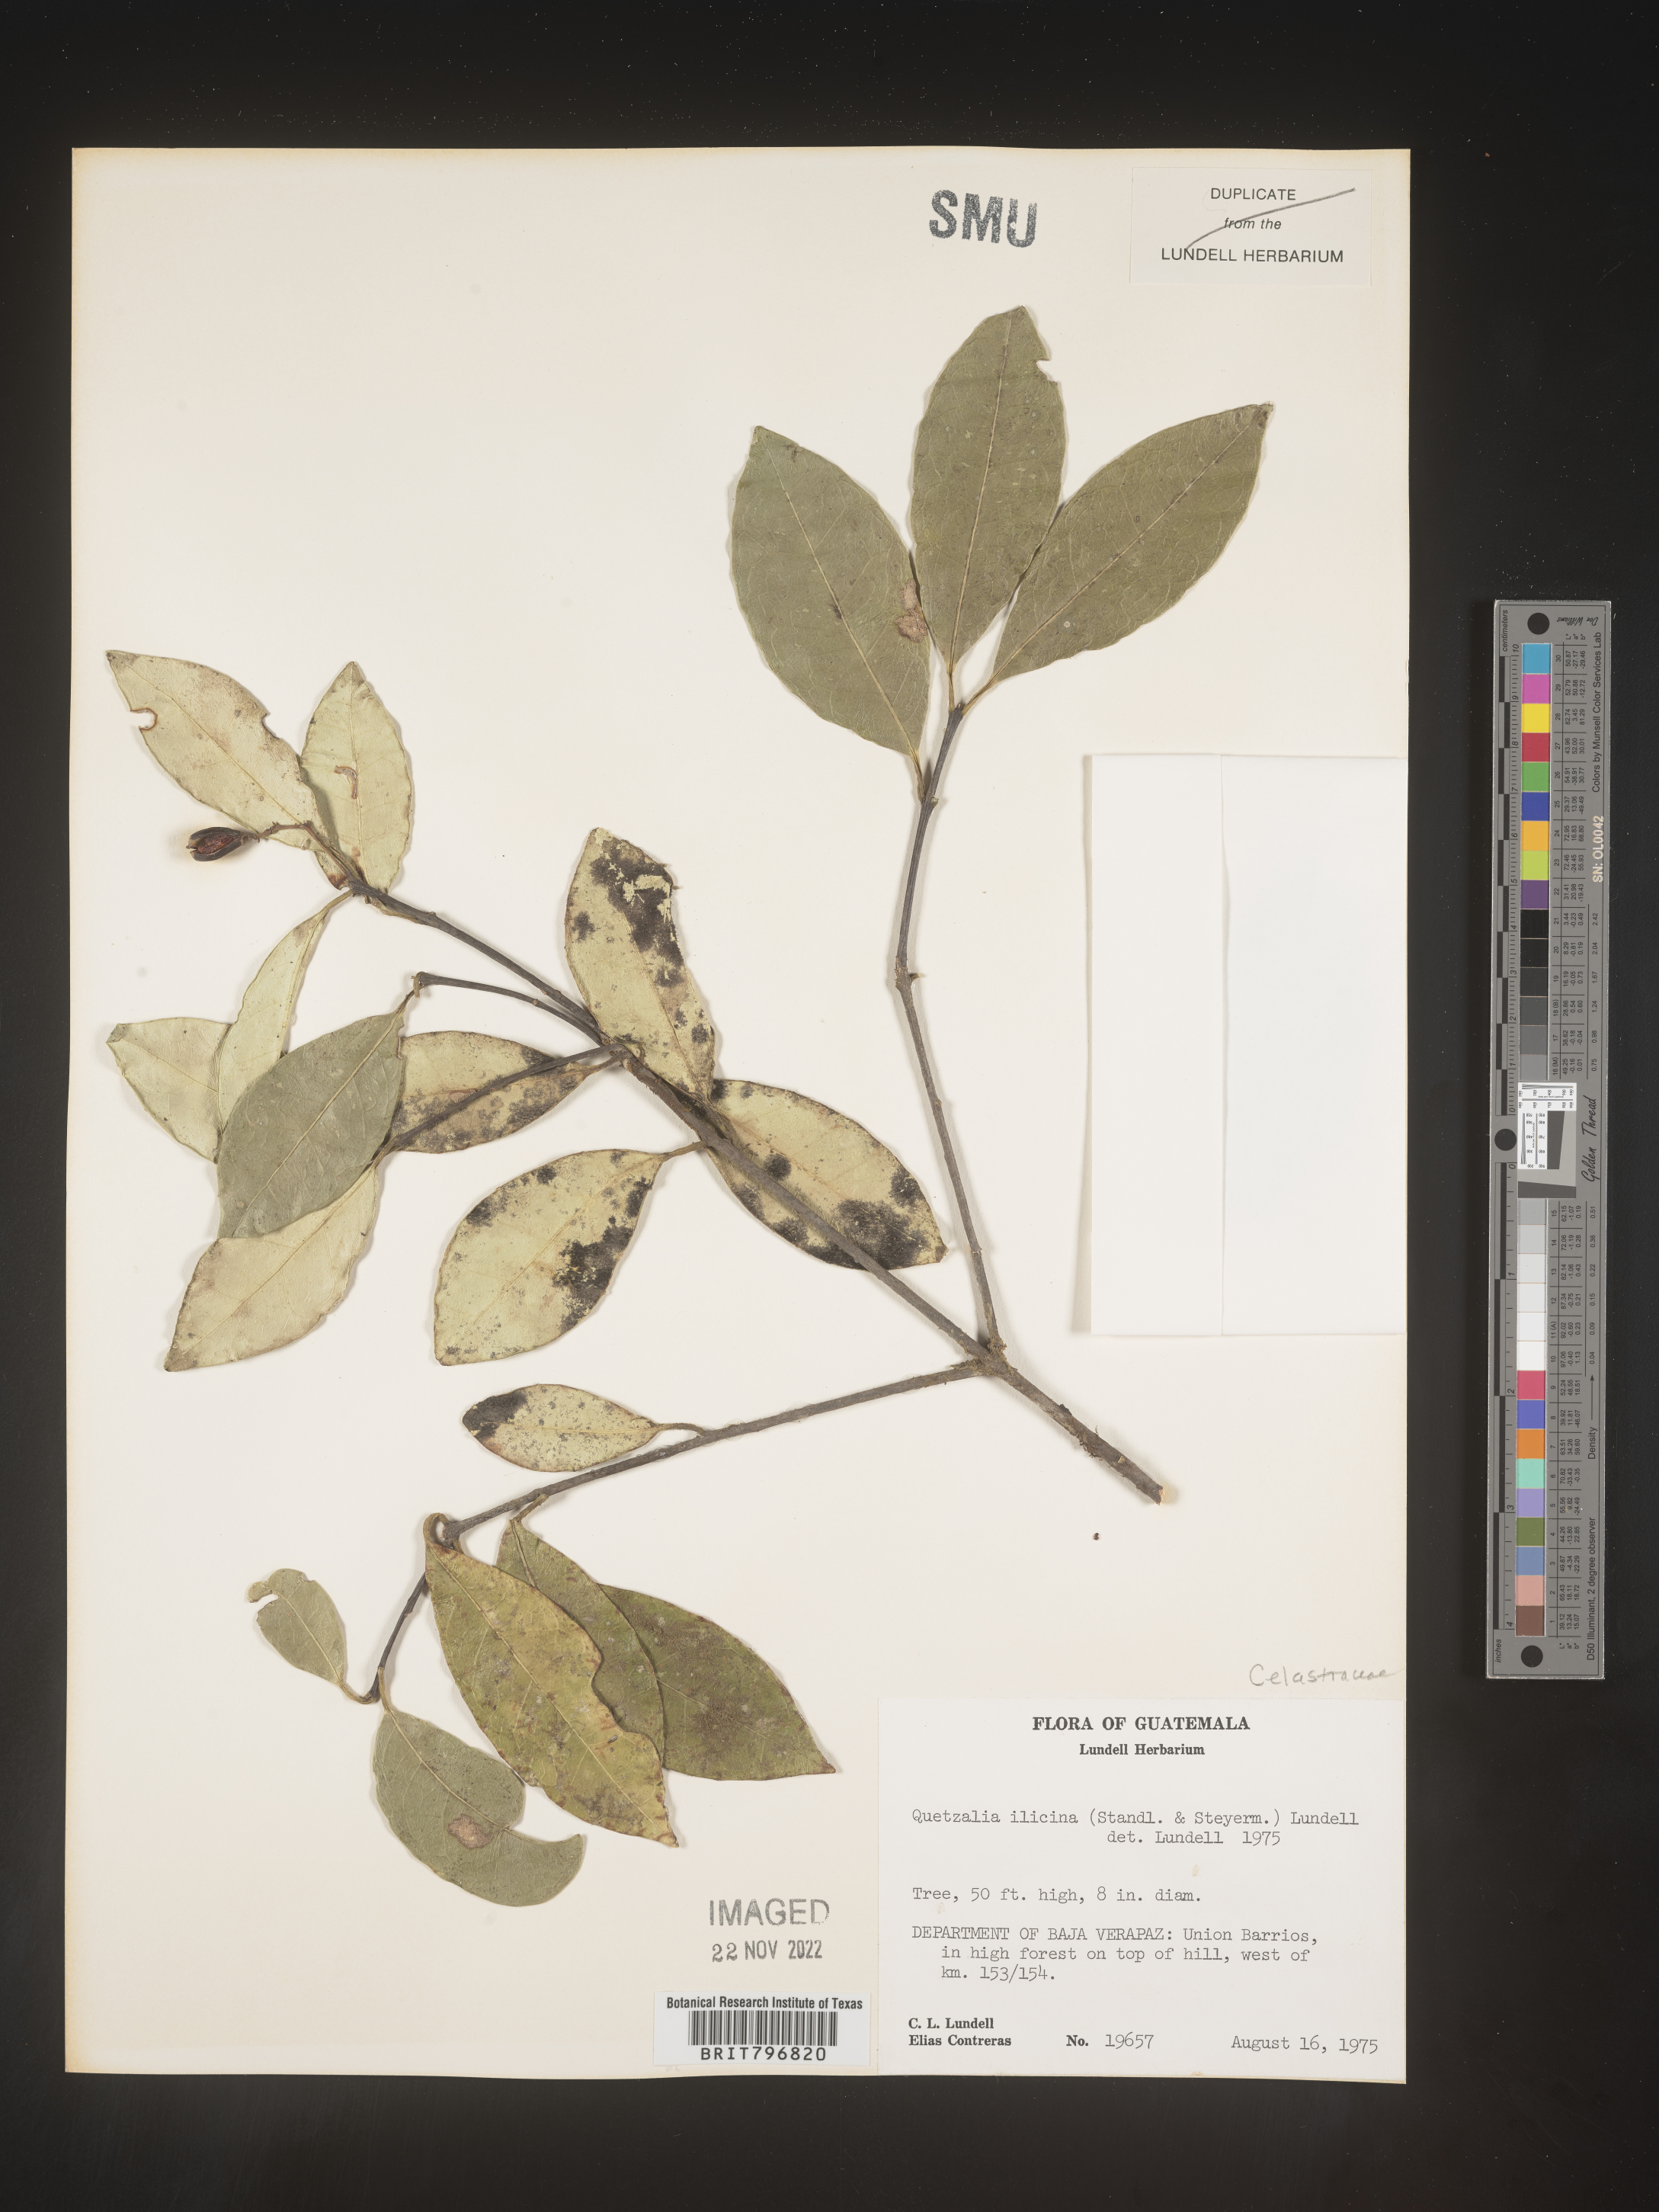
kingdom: Plantae
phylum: Tracheophyta
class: Magnoliopsida
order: Celastrales
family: Celastraceae
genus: Quetzalia
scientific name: Quetzalia
